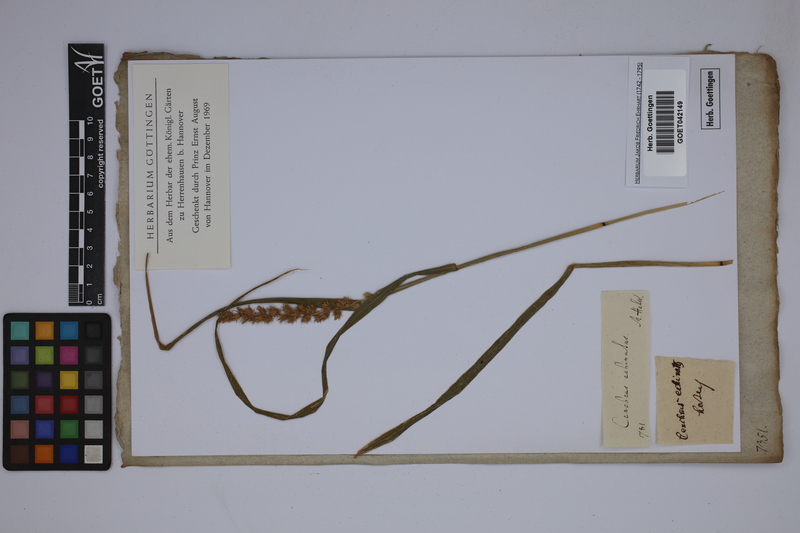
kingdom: Plantae
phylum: Tracheophyta
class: Liliopsida
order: Poales
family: Poaceae
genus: Cenchrus
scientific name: Cenchrus echinatus
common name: Southern sandbur
